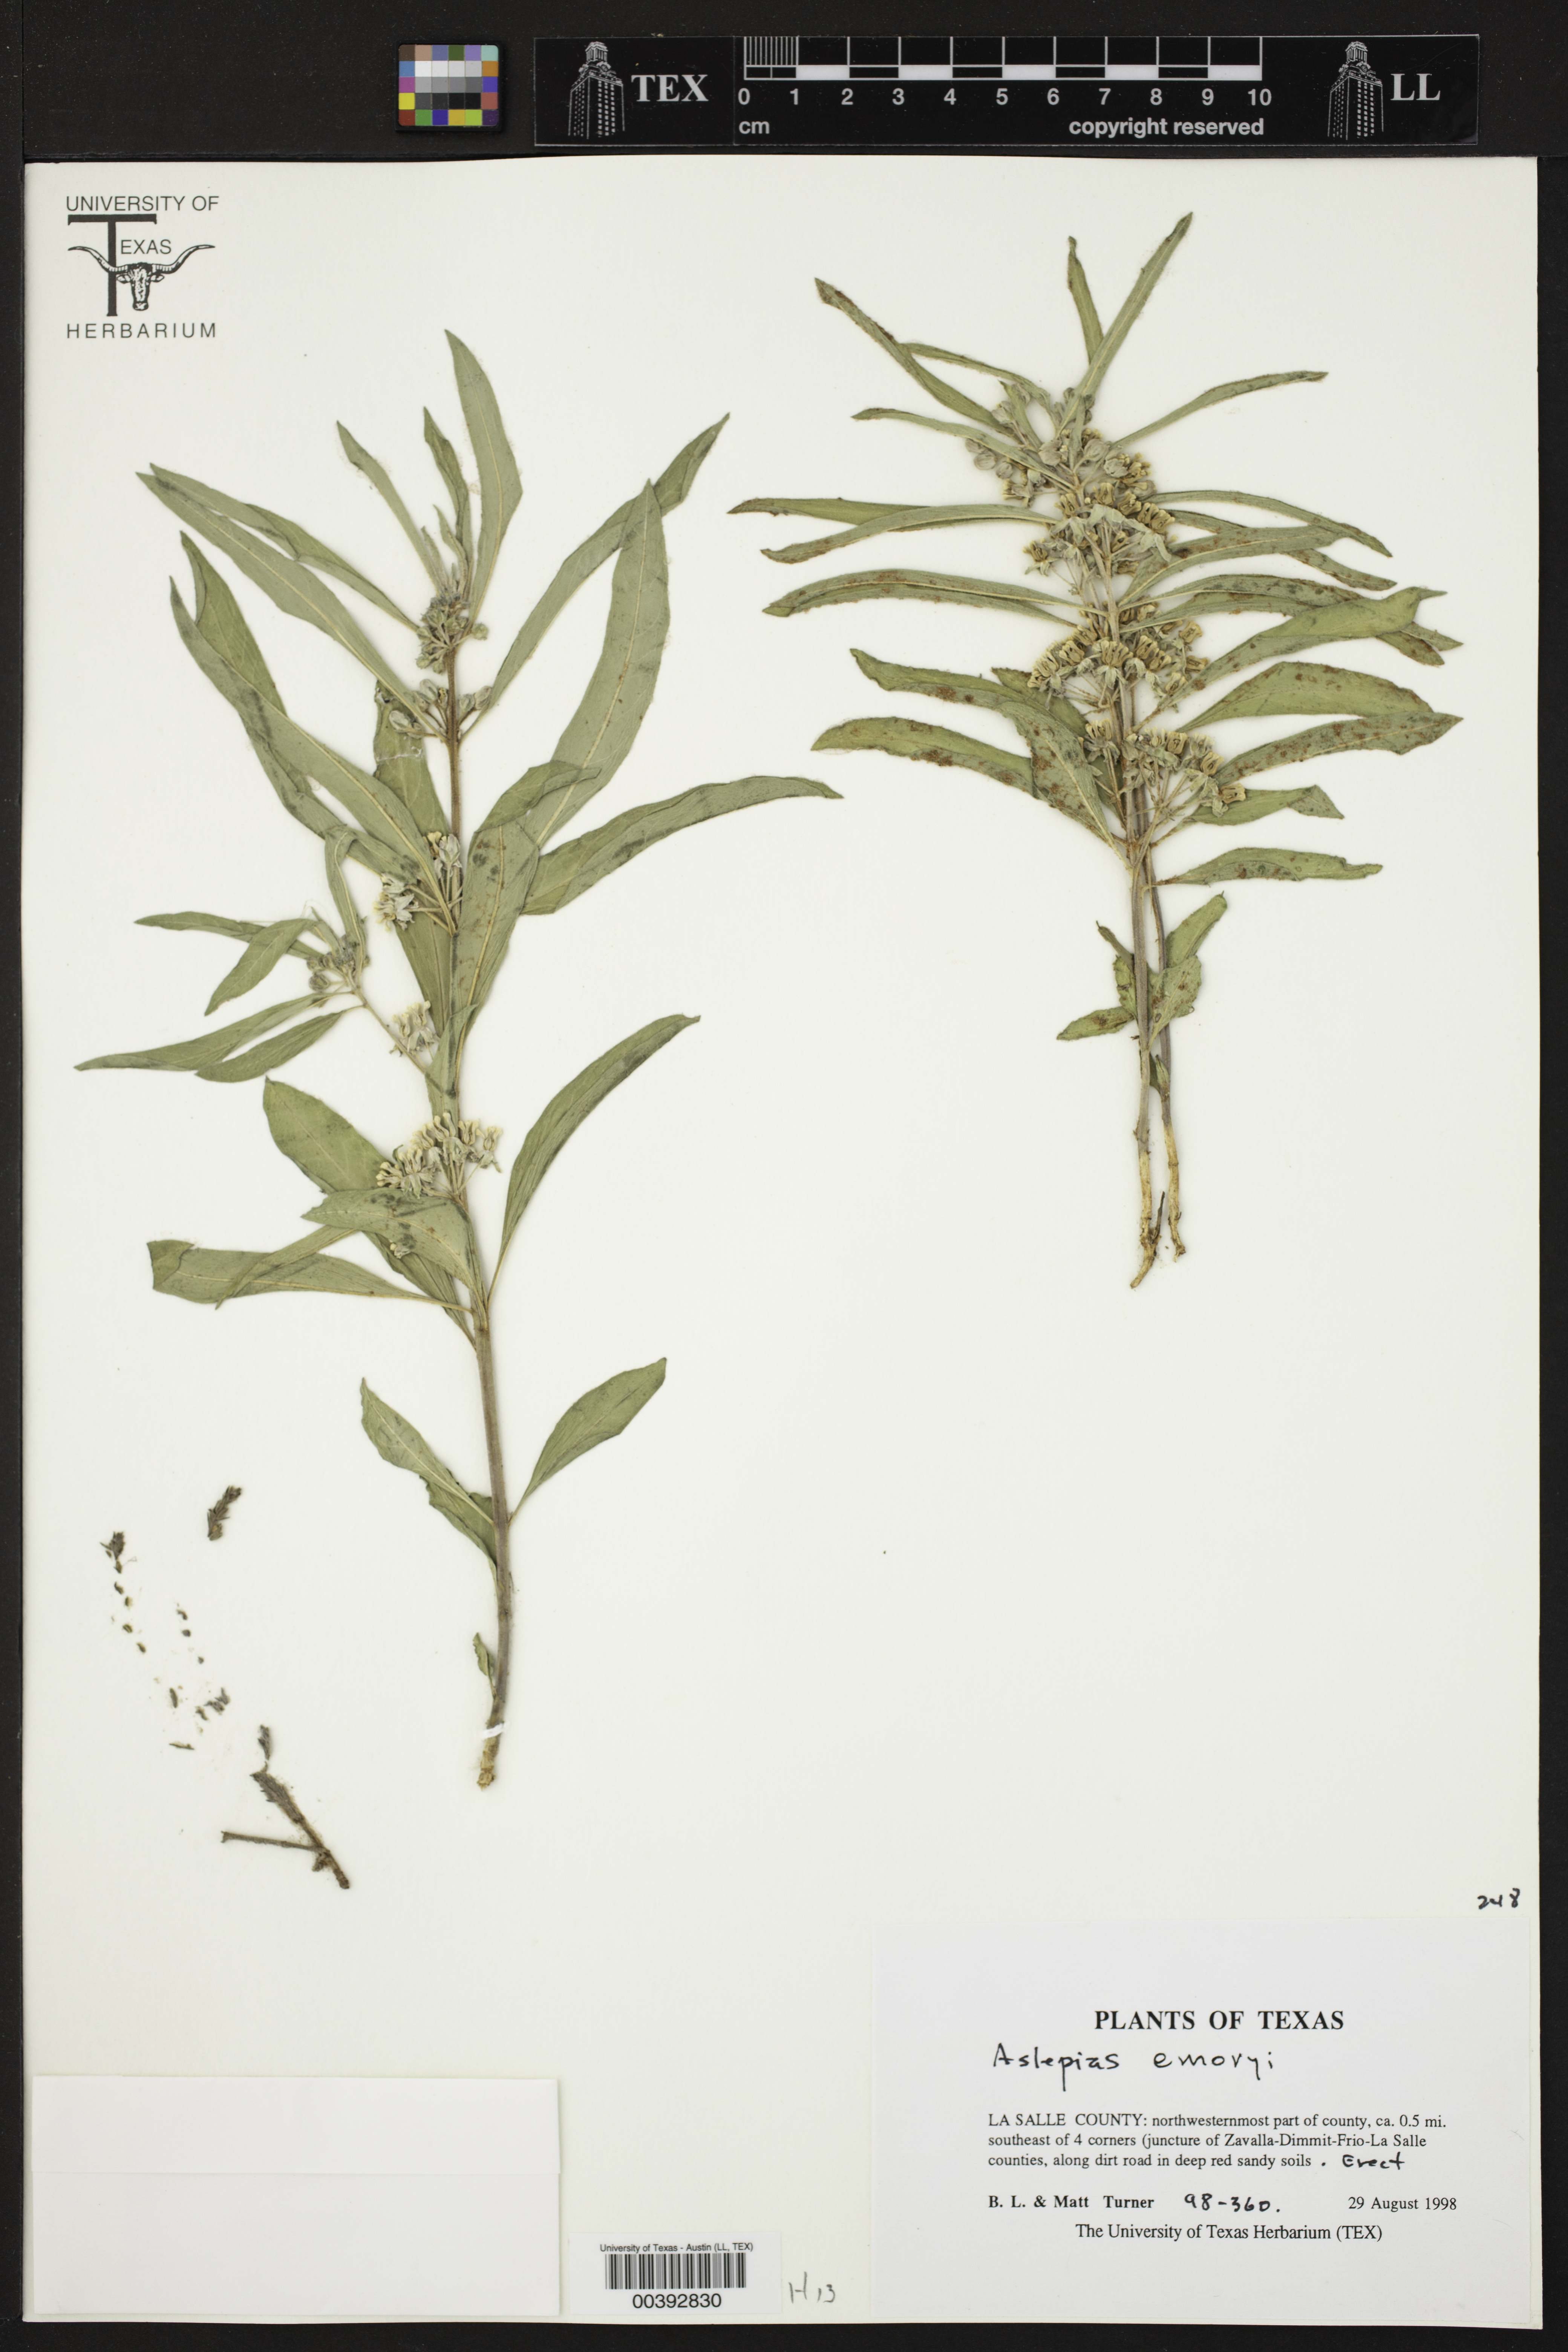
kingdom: Plantae
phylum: Tracheophyta
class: Magnoliopsida
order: Gentianales
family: Apocynaceae
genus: Asclepias
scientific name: Asclepias emoryi
